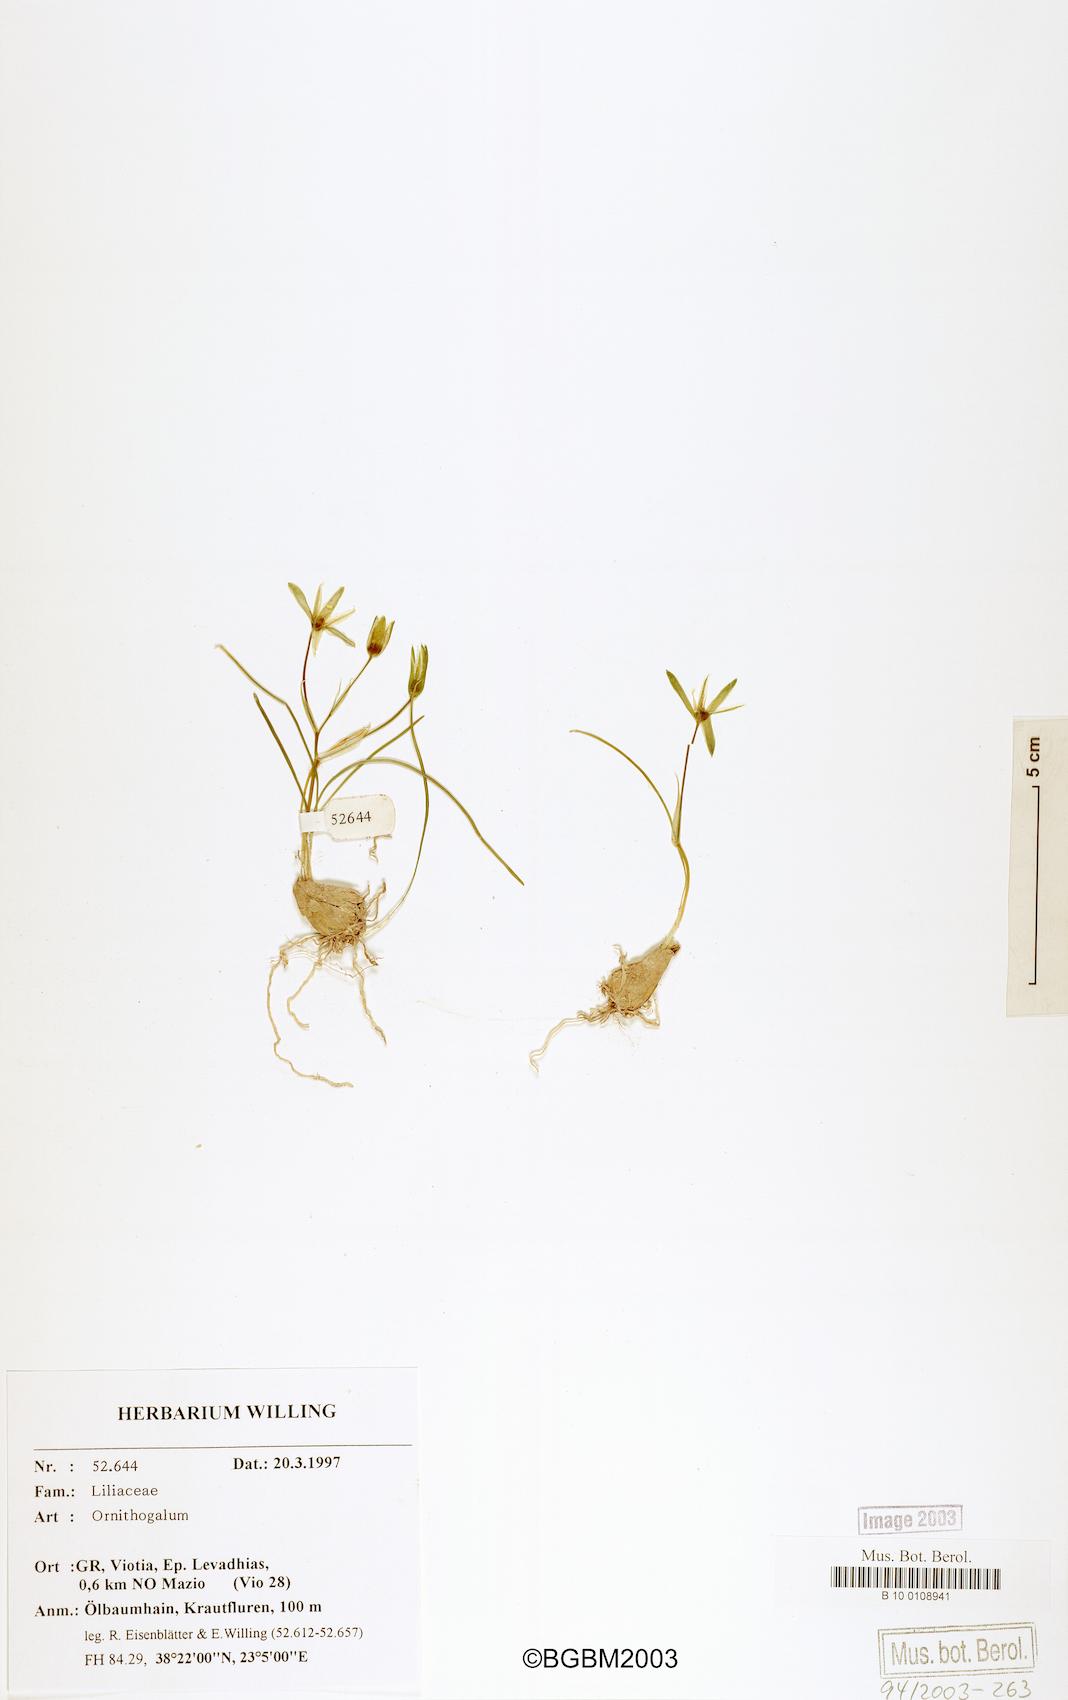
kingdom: Plantae
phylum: Tracheophyta
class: Liliopsida
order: Asparagales
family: Asparagaceae
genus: Ornithogalum
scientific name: Ornithogalum
